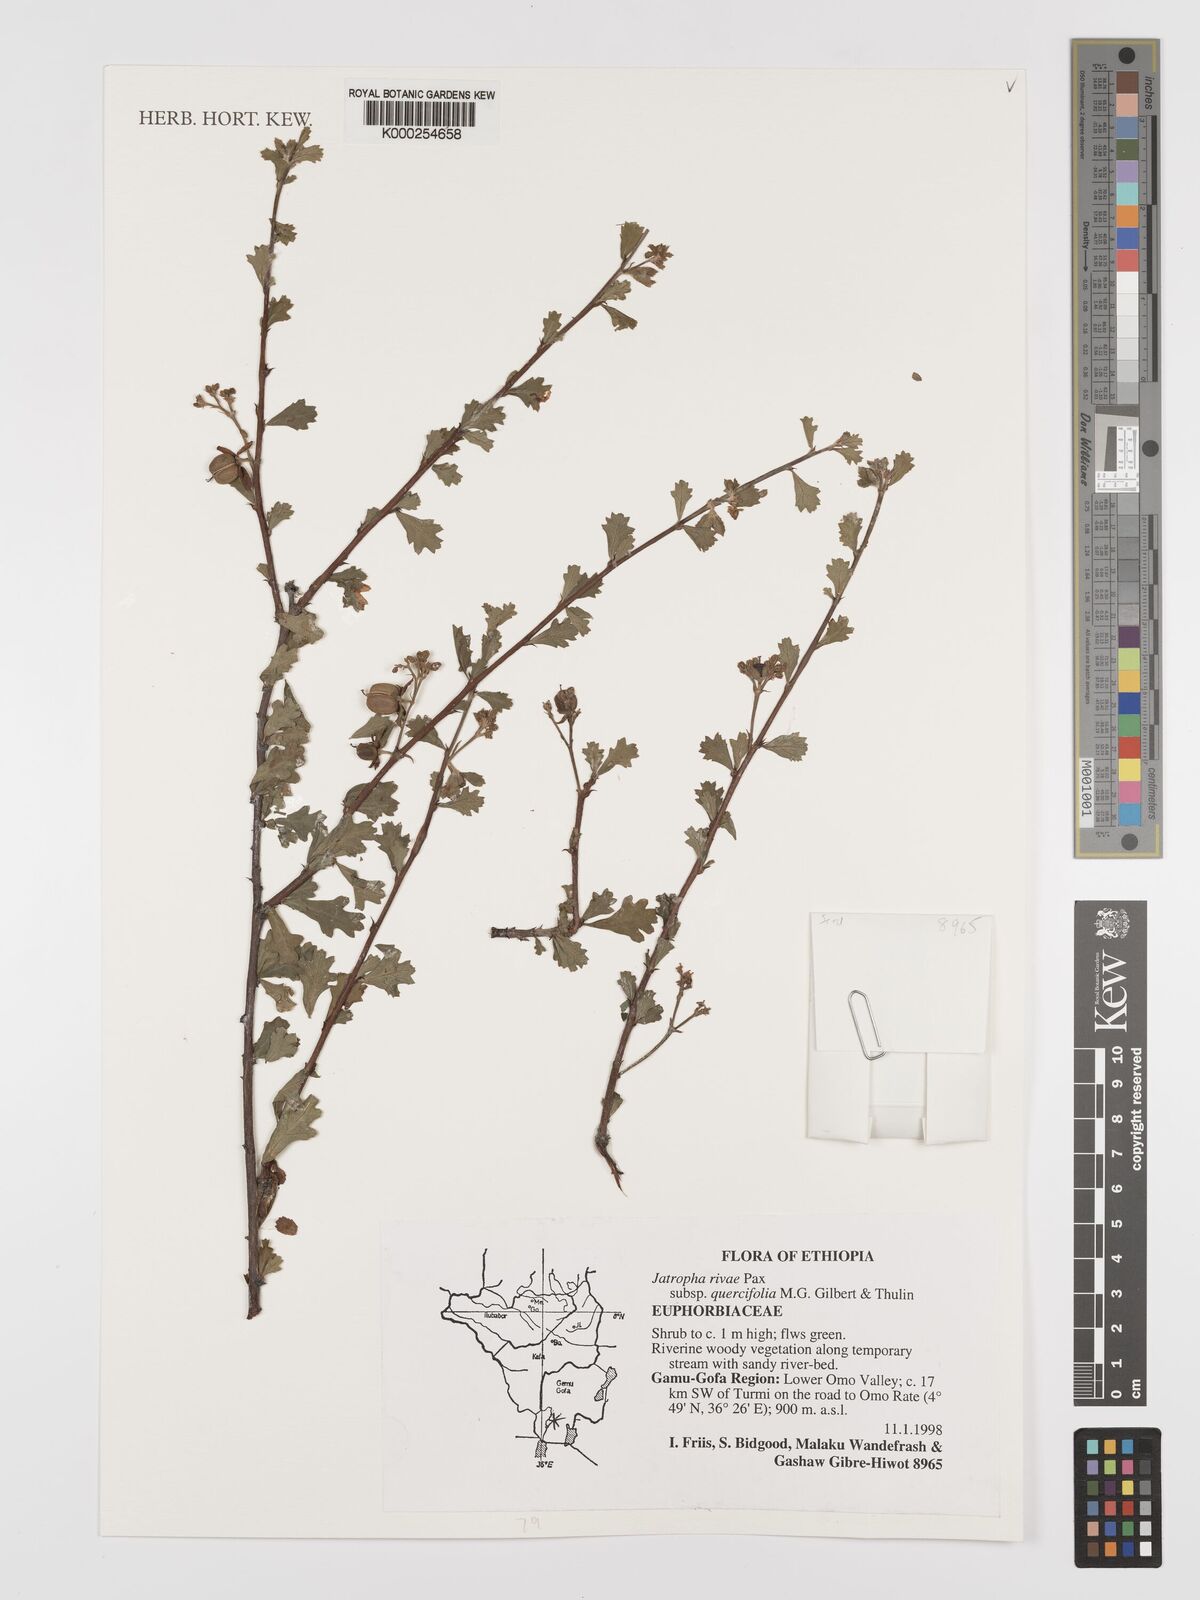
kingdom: Plantae
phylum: Tracheophyta
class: Magnoliopsida
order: Malpighiales
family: Euphorbiaceae
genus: Jatropha
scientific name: Jatropha rivae
